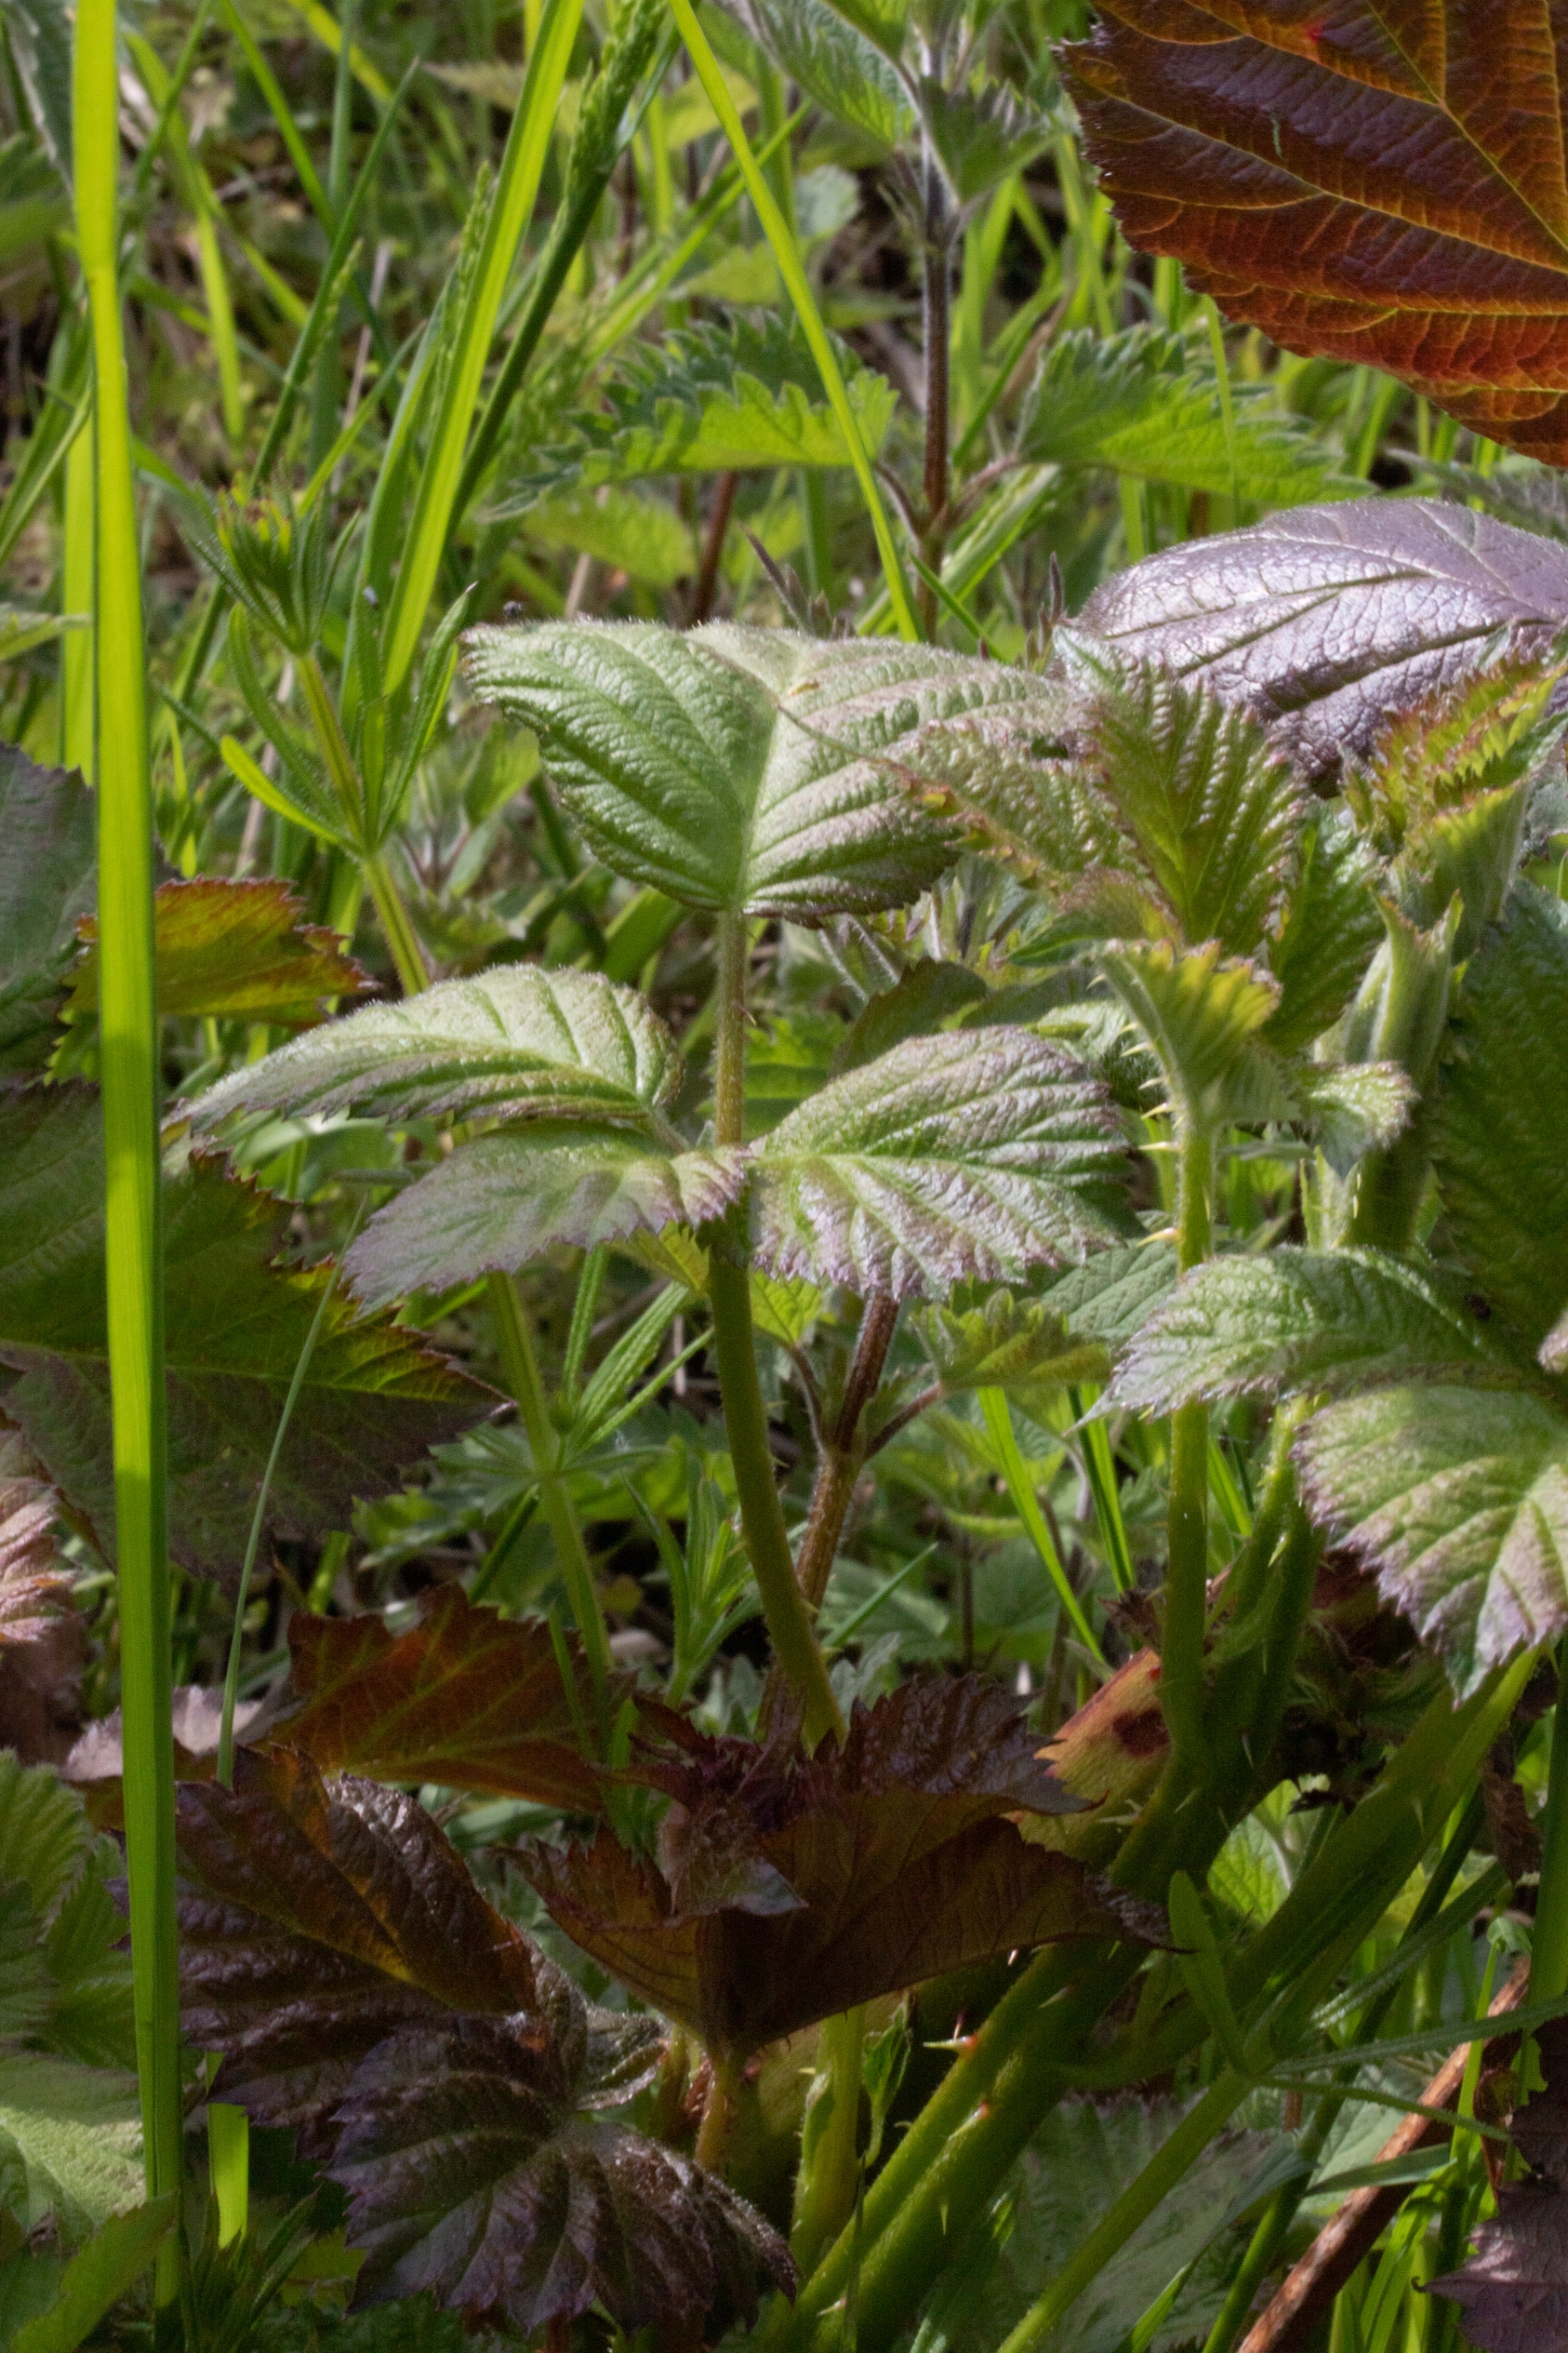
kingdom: Plantae
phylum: Tracheophyta
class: Magnoliopsida
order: Rosales
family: Rosaceae
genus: Rubus
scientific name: Rubus armeniacus
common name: Armensk brombær
